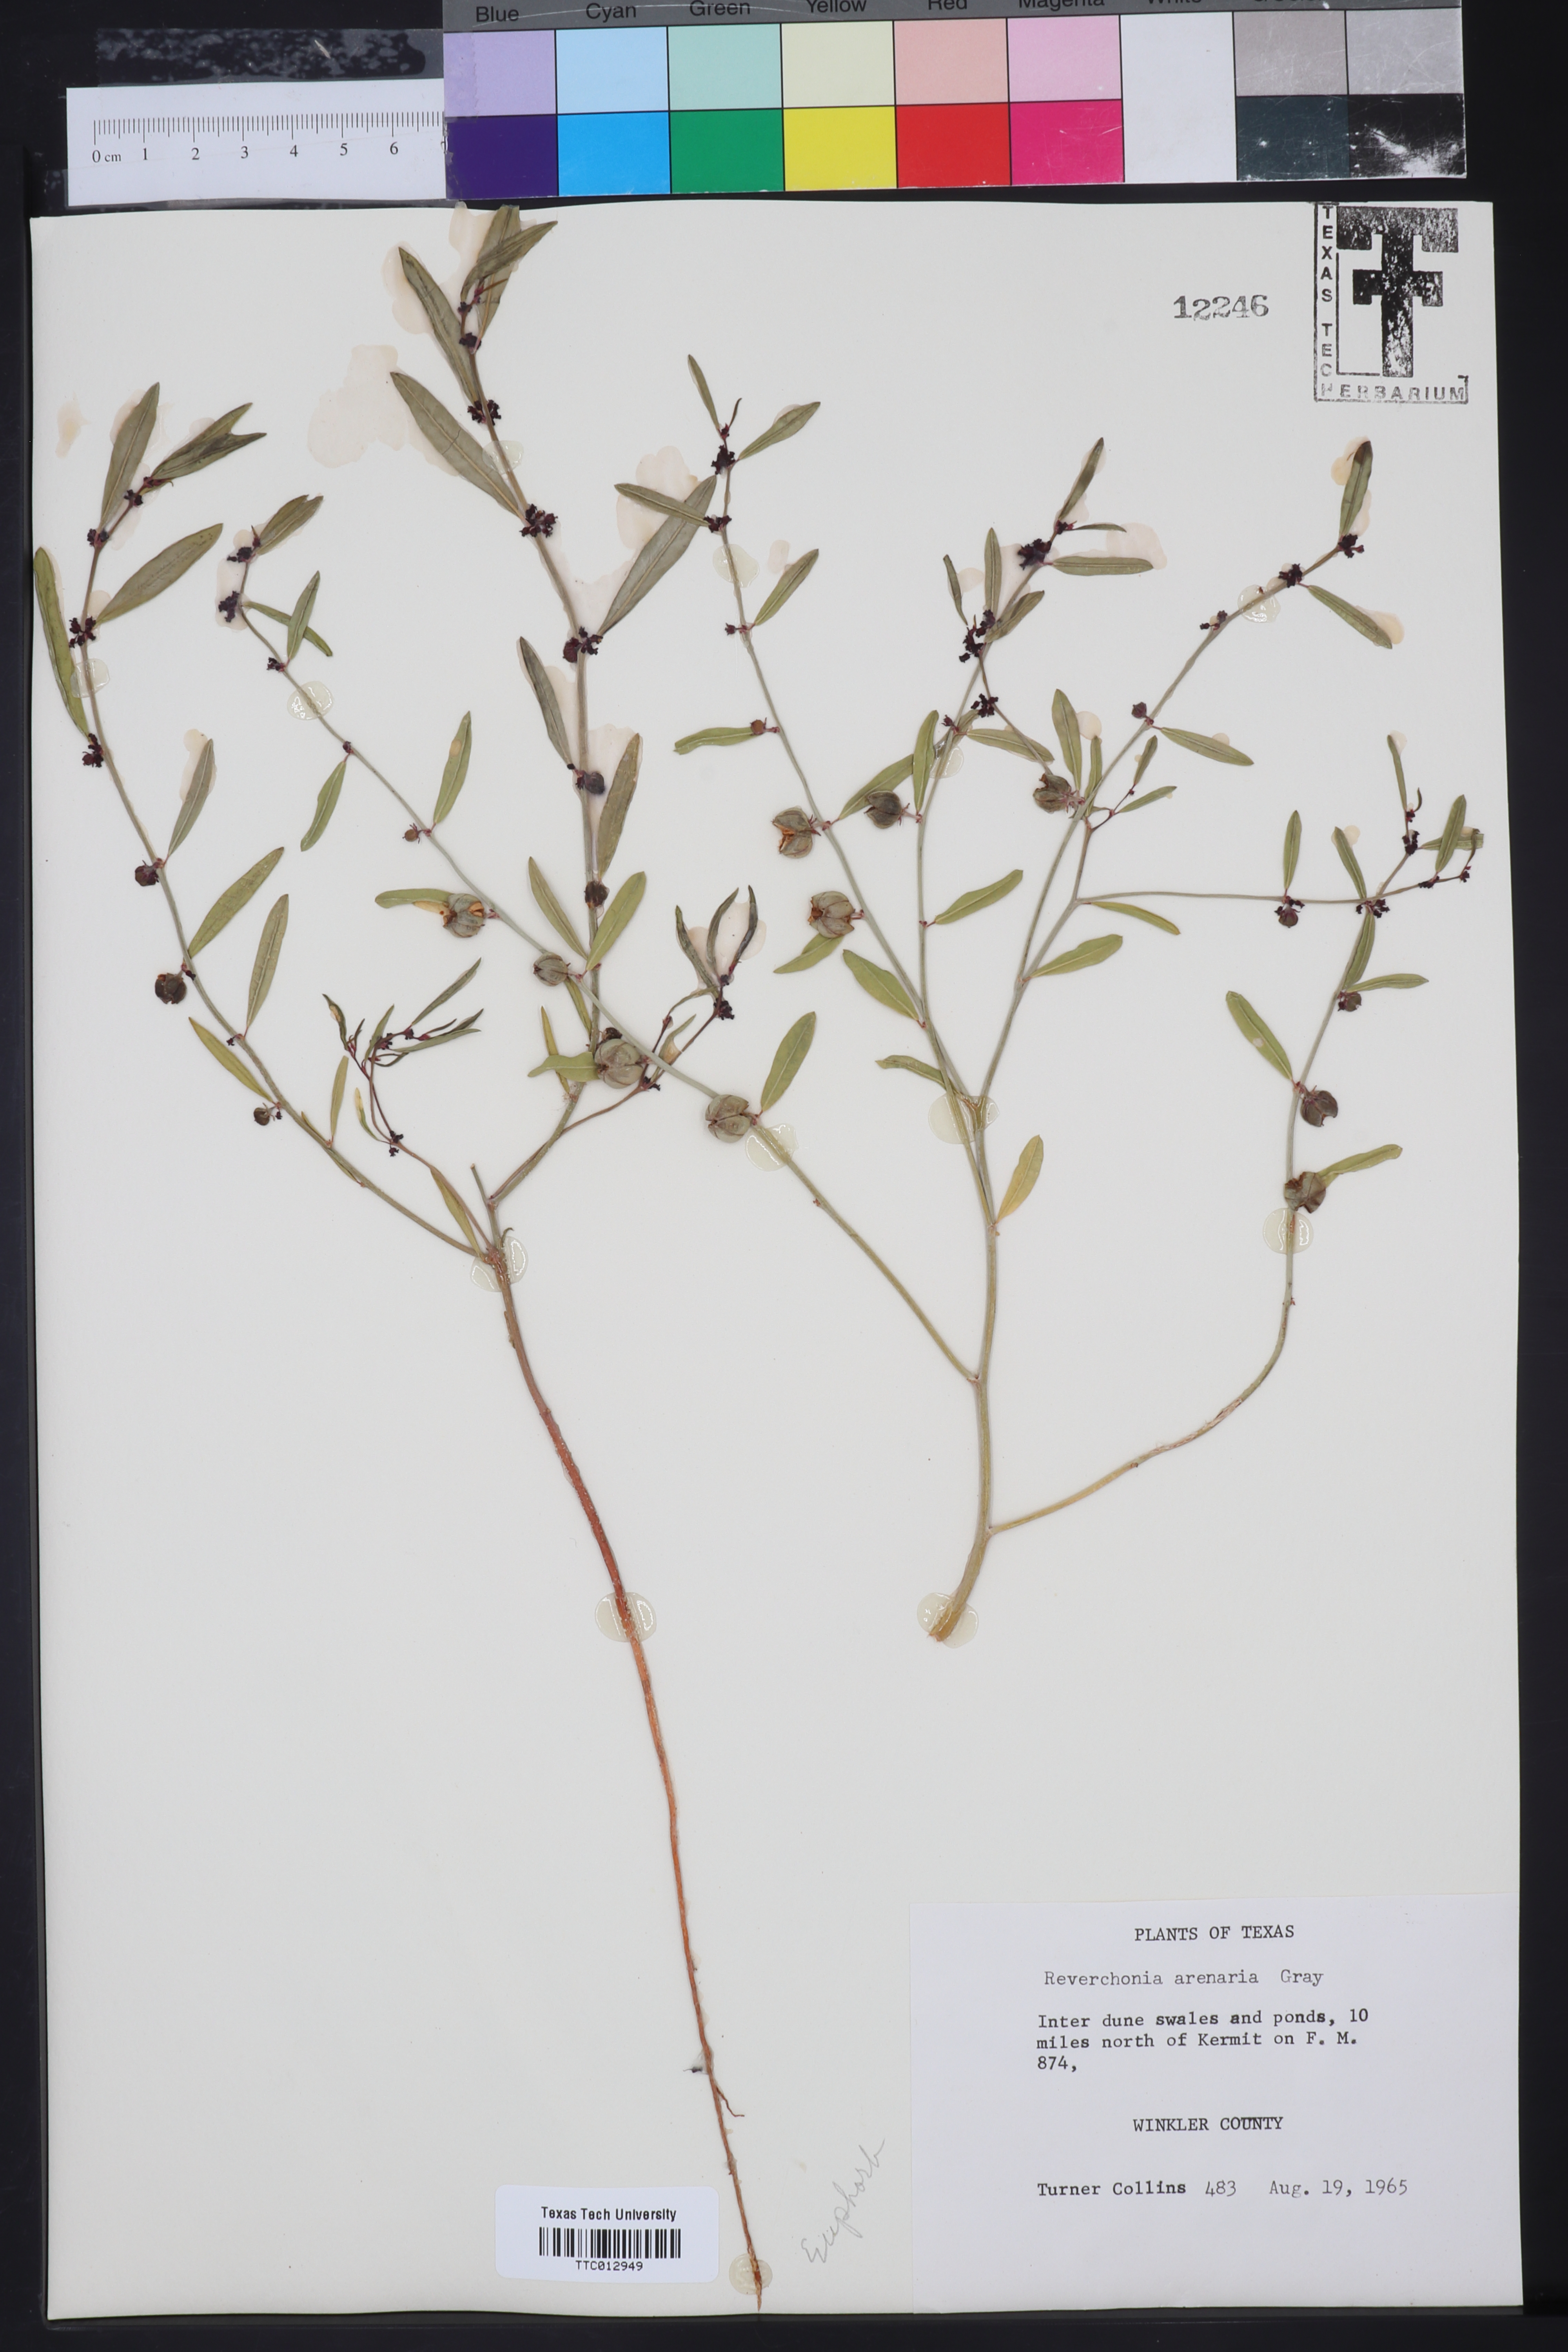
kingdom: Plantae
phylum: Tracheophyta
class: Magnoliopsida
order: Malpighiales
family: Phyllanthaceae
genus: Phyllanthus
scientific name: Phyllanthus warnockii
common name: Sand reverchonia
